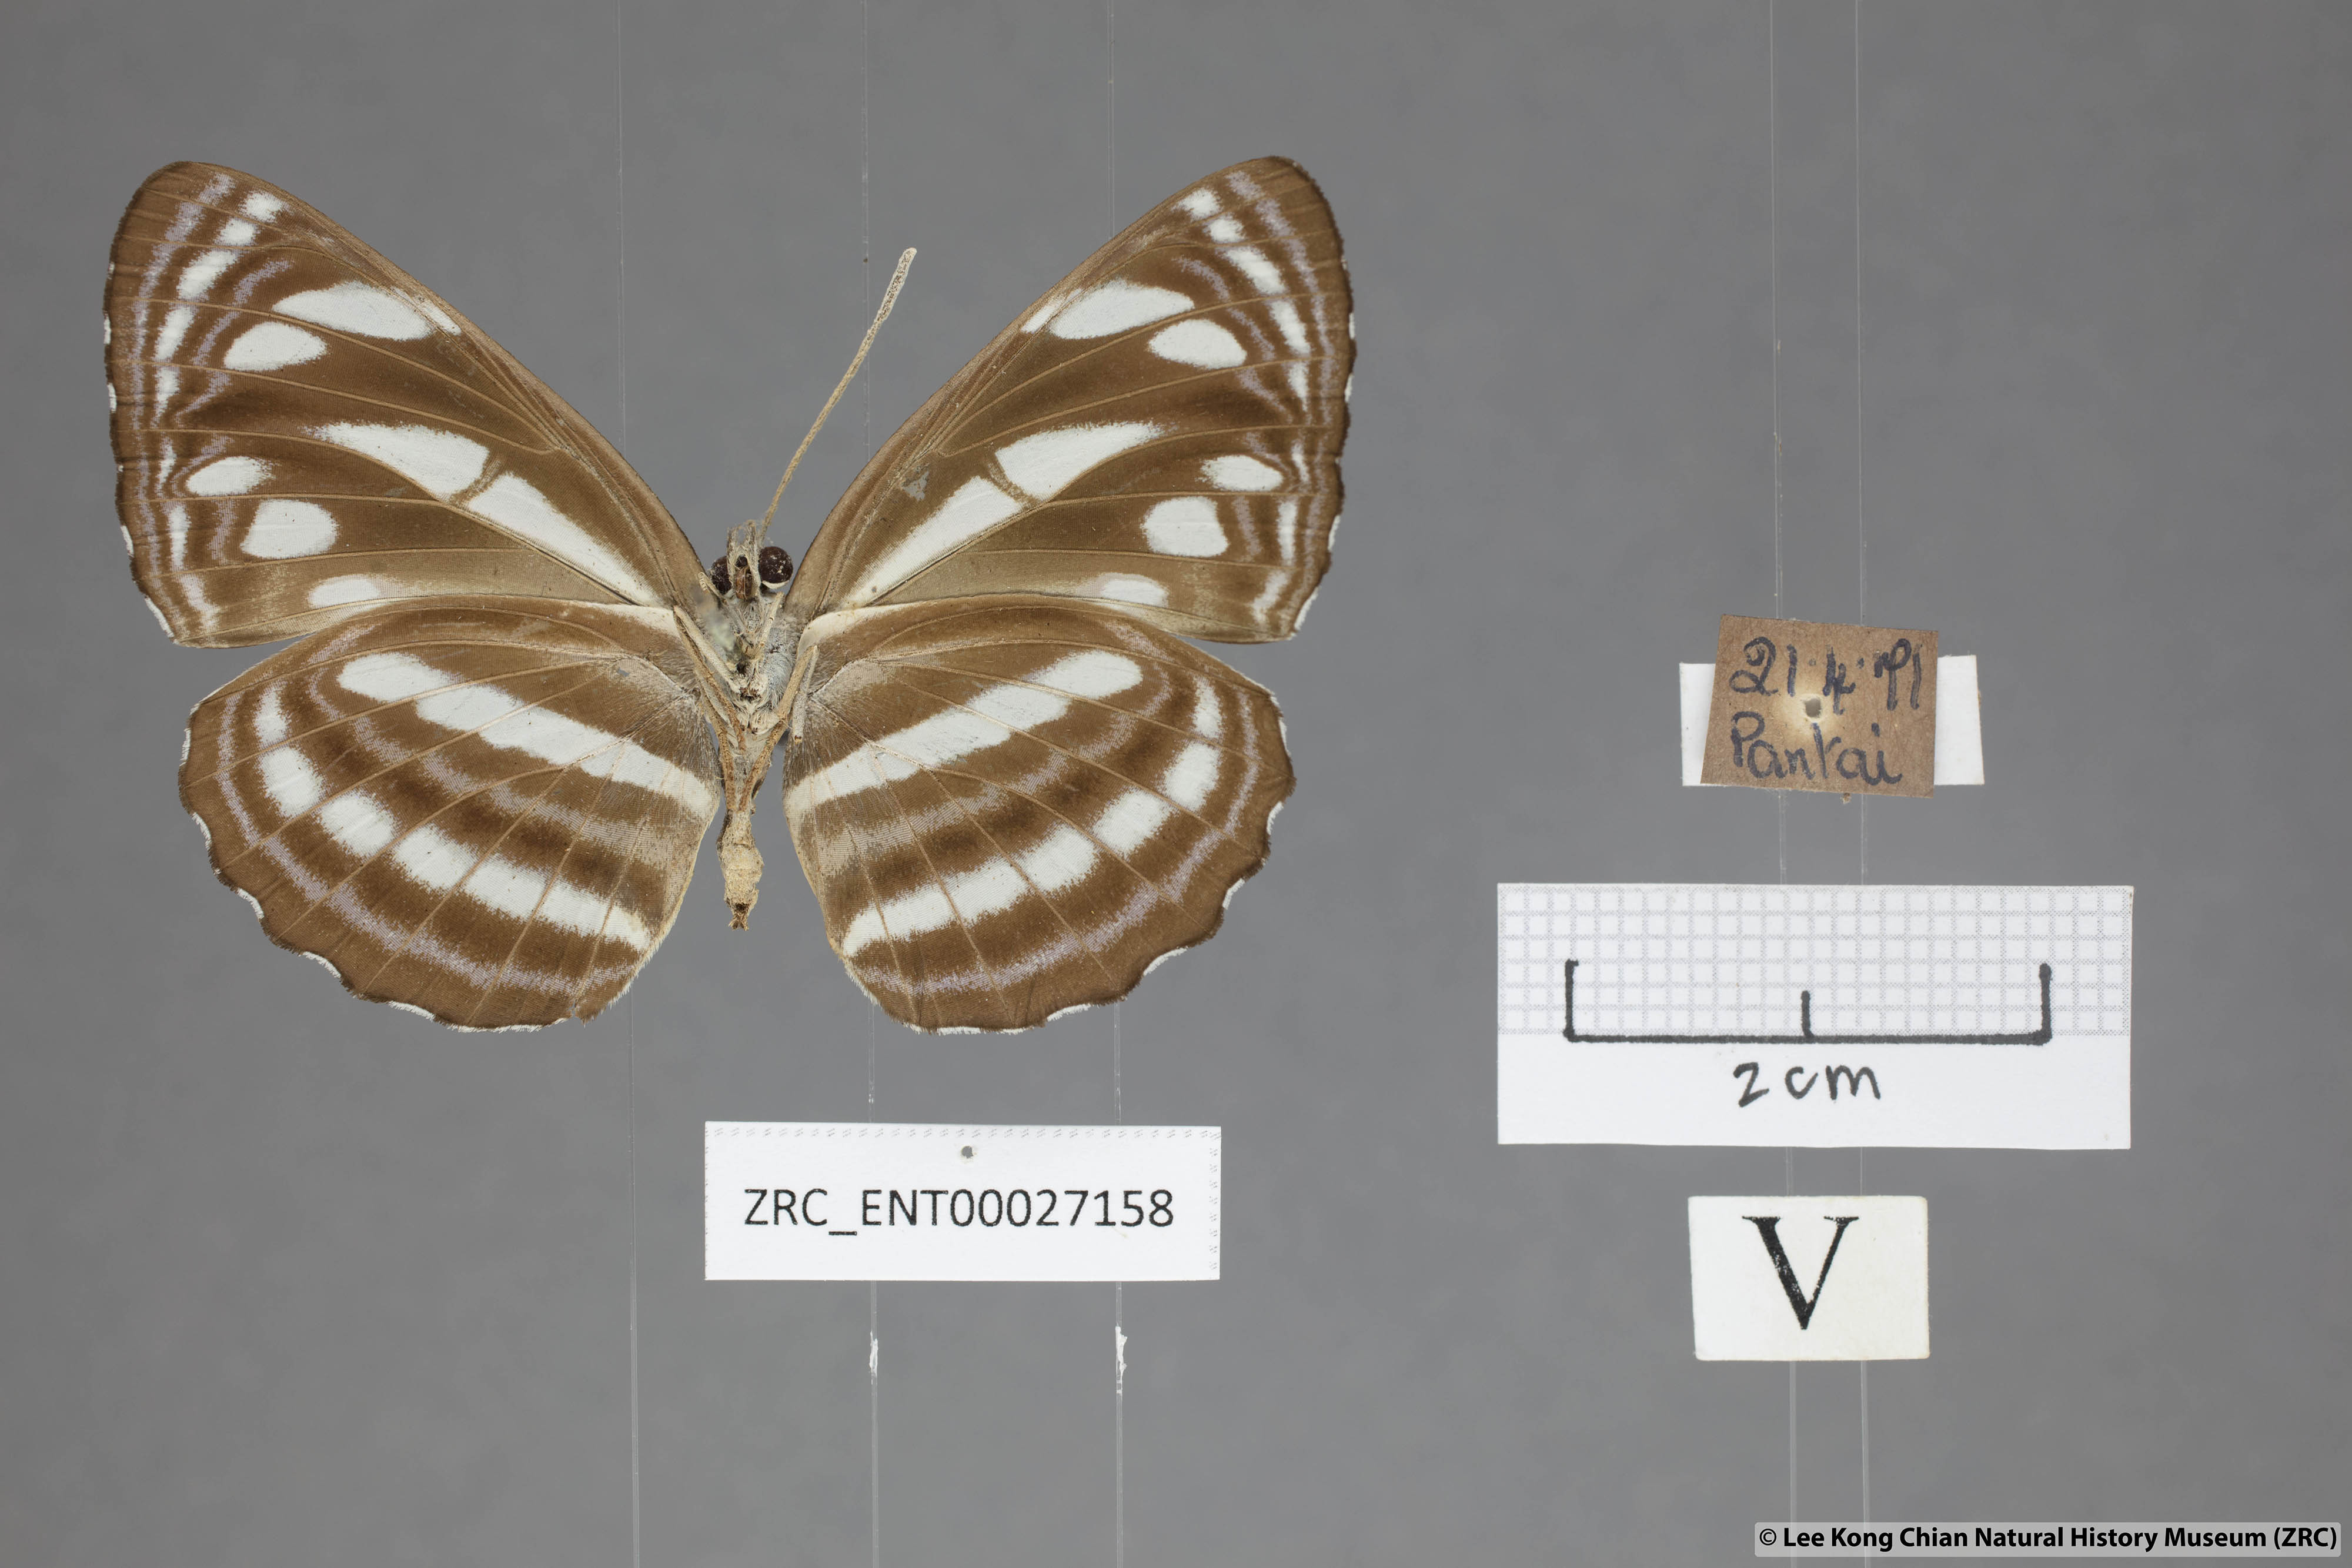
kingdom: Animalia
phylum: Arthropoda
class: Insecta
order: Lepidoptera
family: Nymphalidae
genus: Neptis
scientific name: Neptis leucoporus
